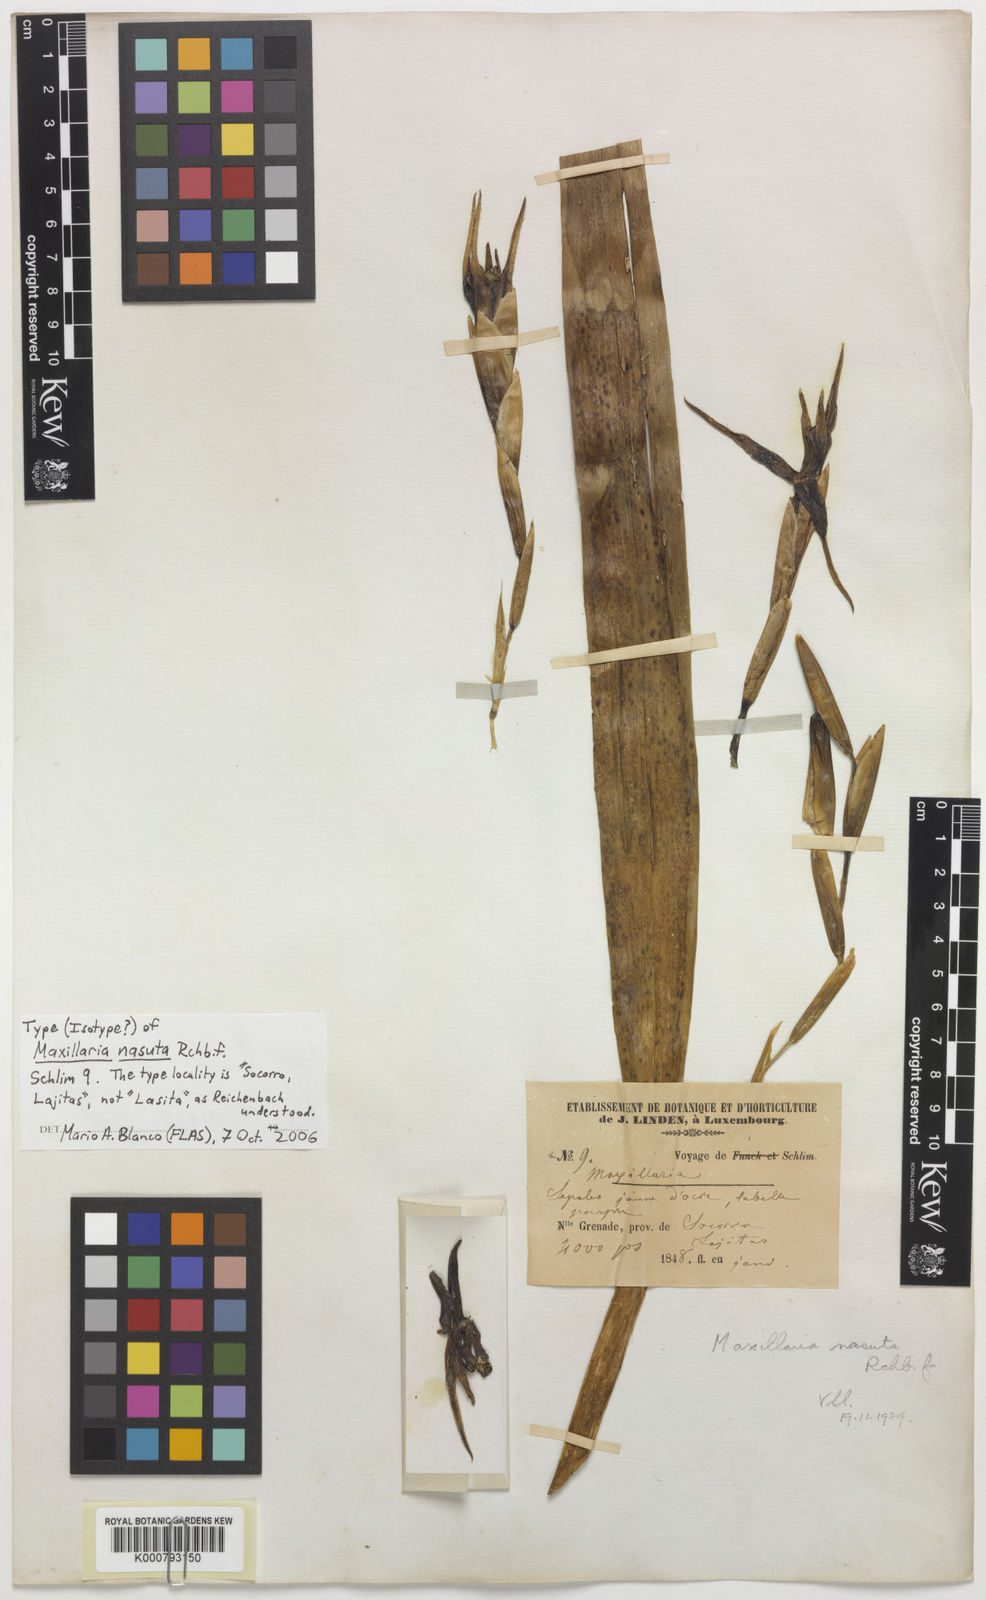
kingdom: Plantae
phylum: Tracheophyta
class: Liliopsida
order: Asparagales
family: Orchidaceae
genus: Maxillaria
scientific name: Maxillaria nasuta
